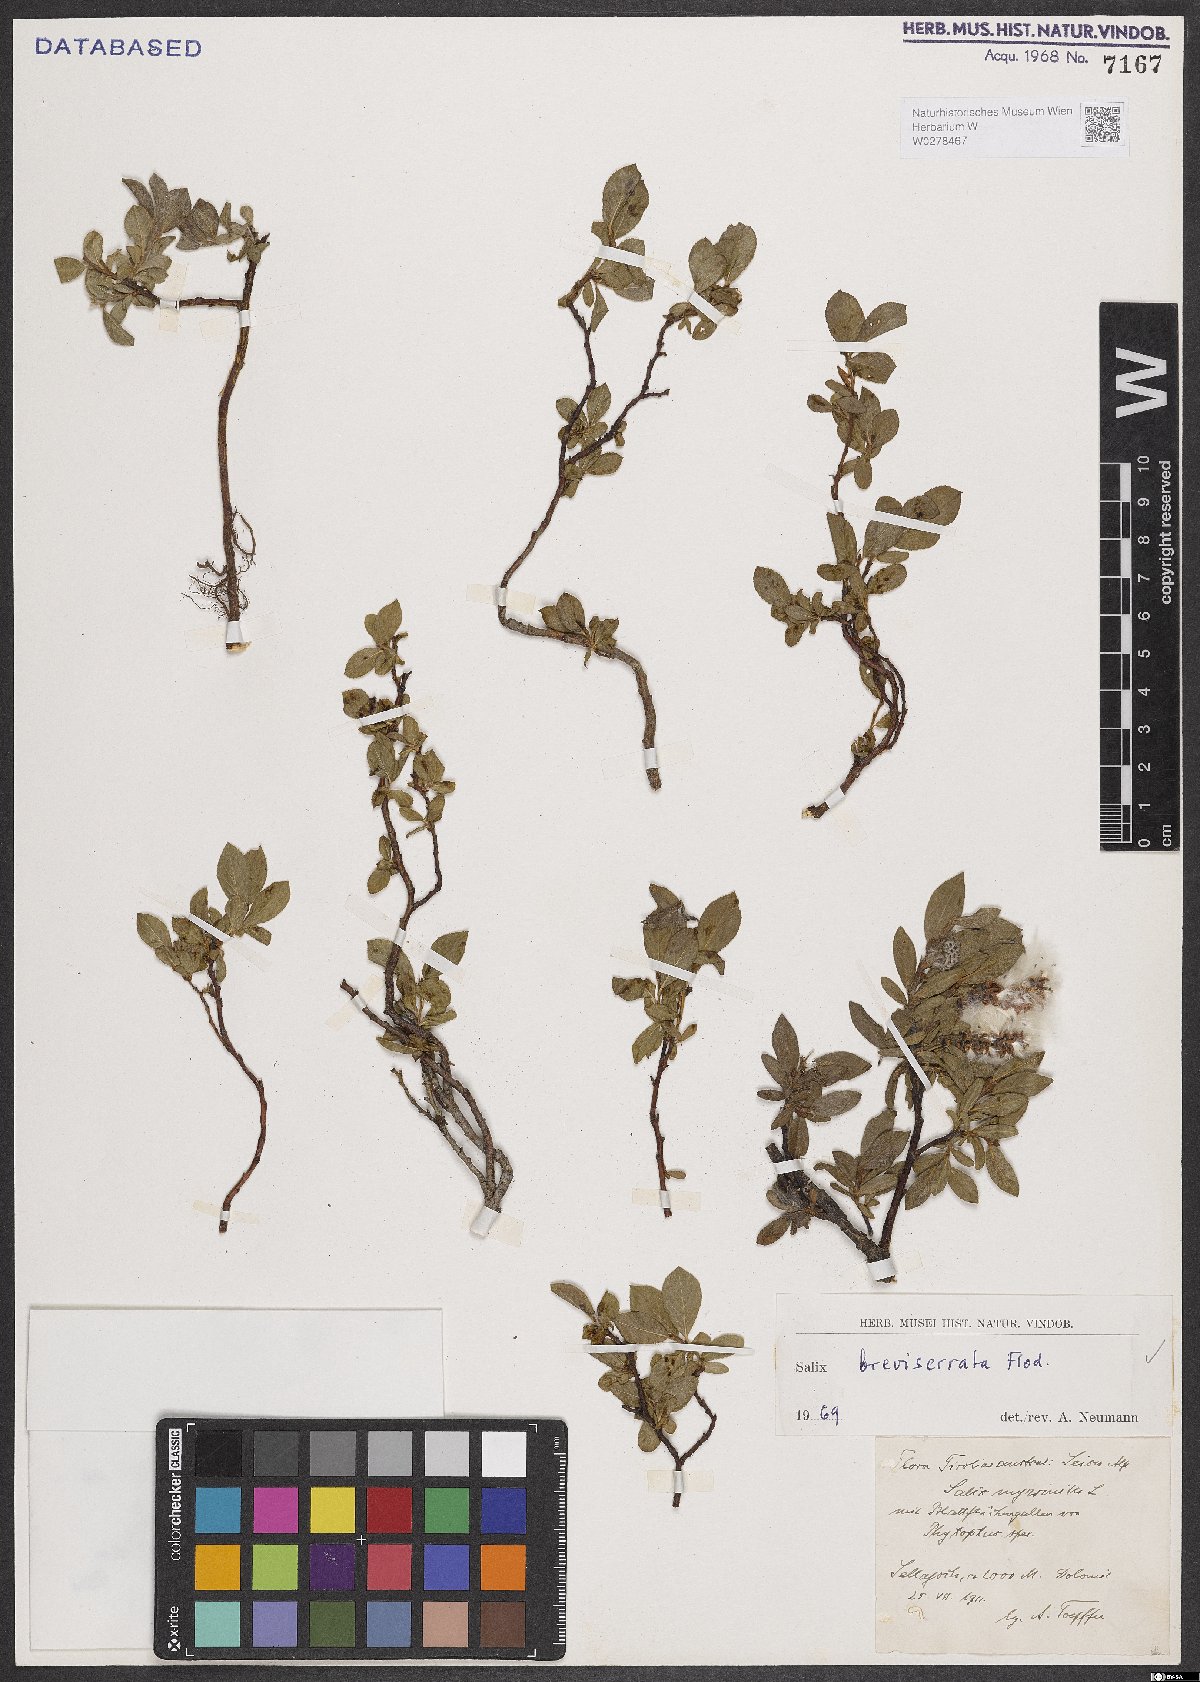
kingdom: Plantae
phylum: Tracheophyta
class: Magnoliopsida
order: Malpighiales
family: Salicaceae
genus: Salix
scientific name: Salix breviserrata
